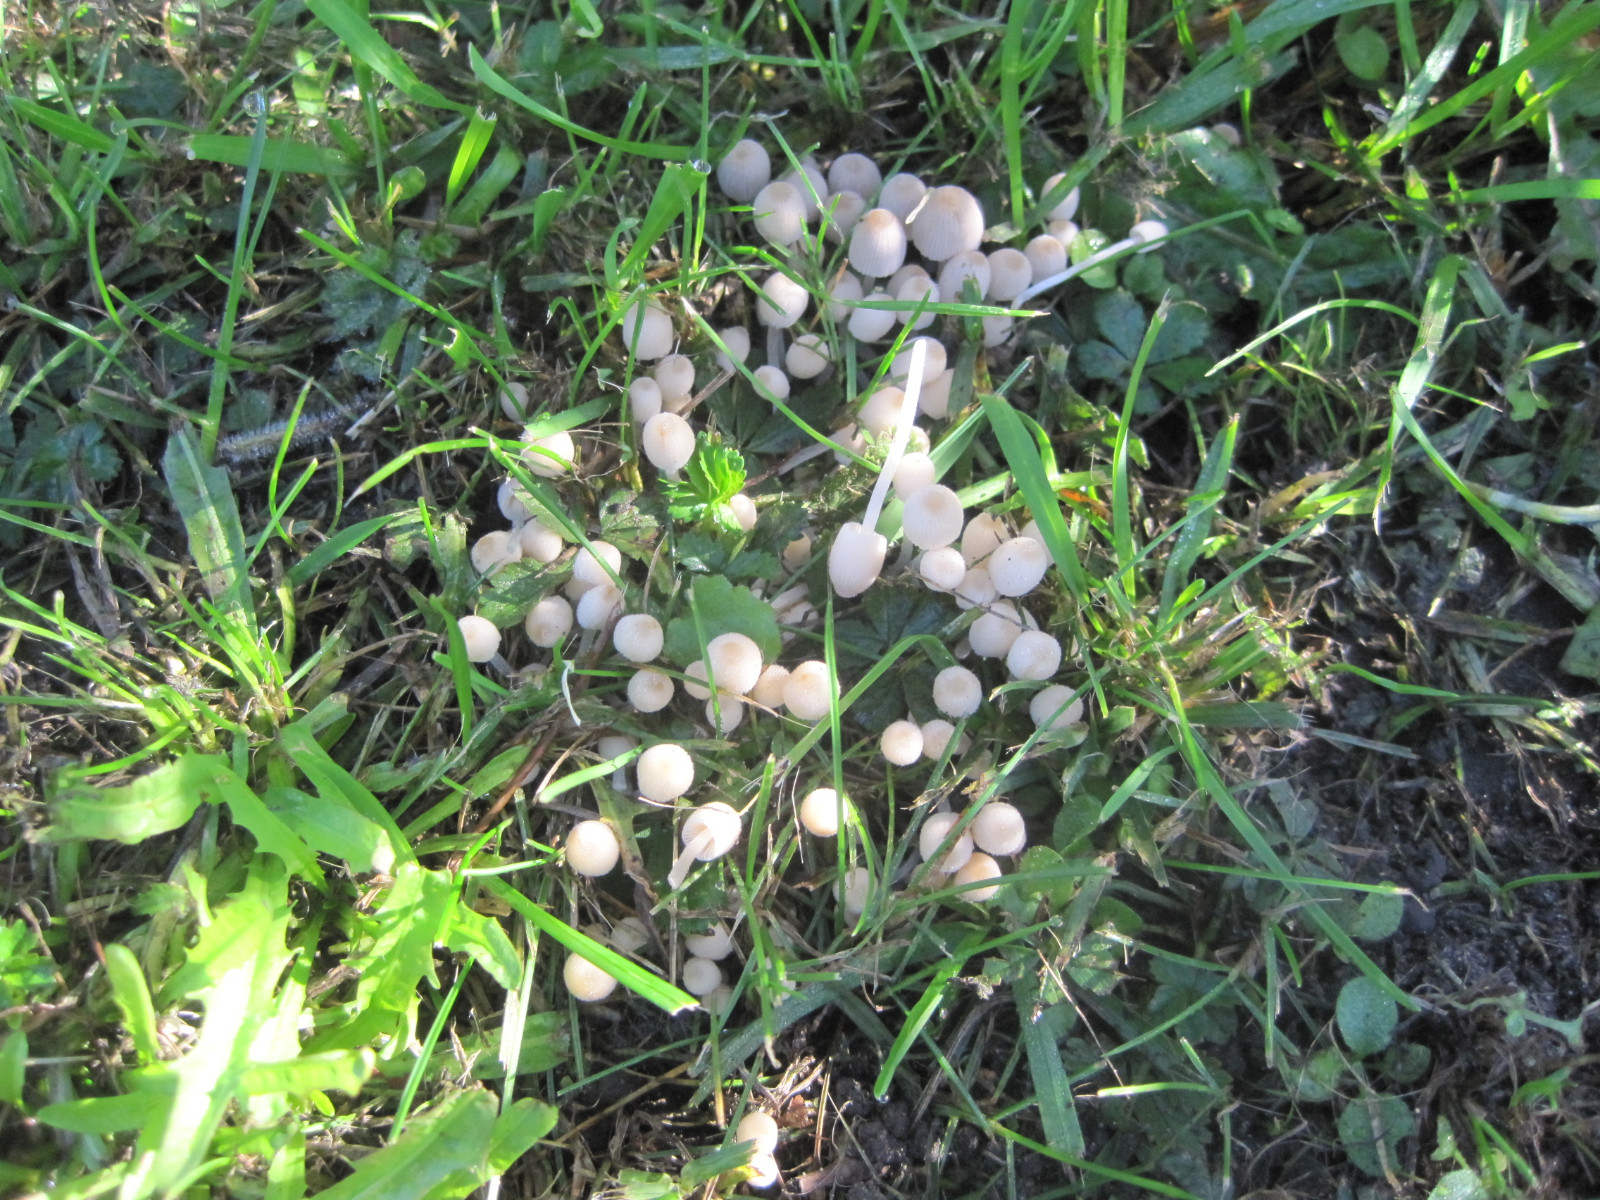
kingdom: Fungi
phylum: Basidiomycota
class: Agaricomycetes
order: Agaricales
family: Psathyrellaceae
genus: Coprinellus
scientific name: Coprinellus disseminatus
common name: bredsået blækhat
